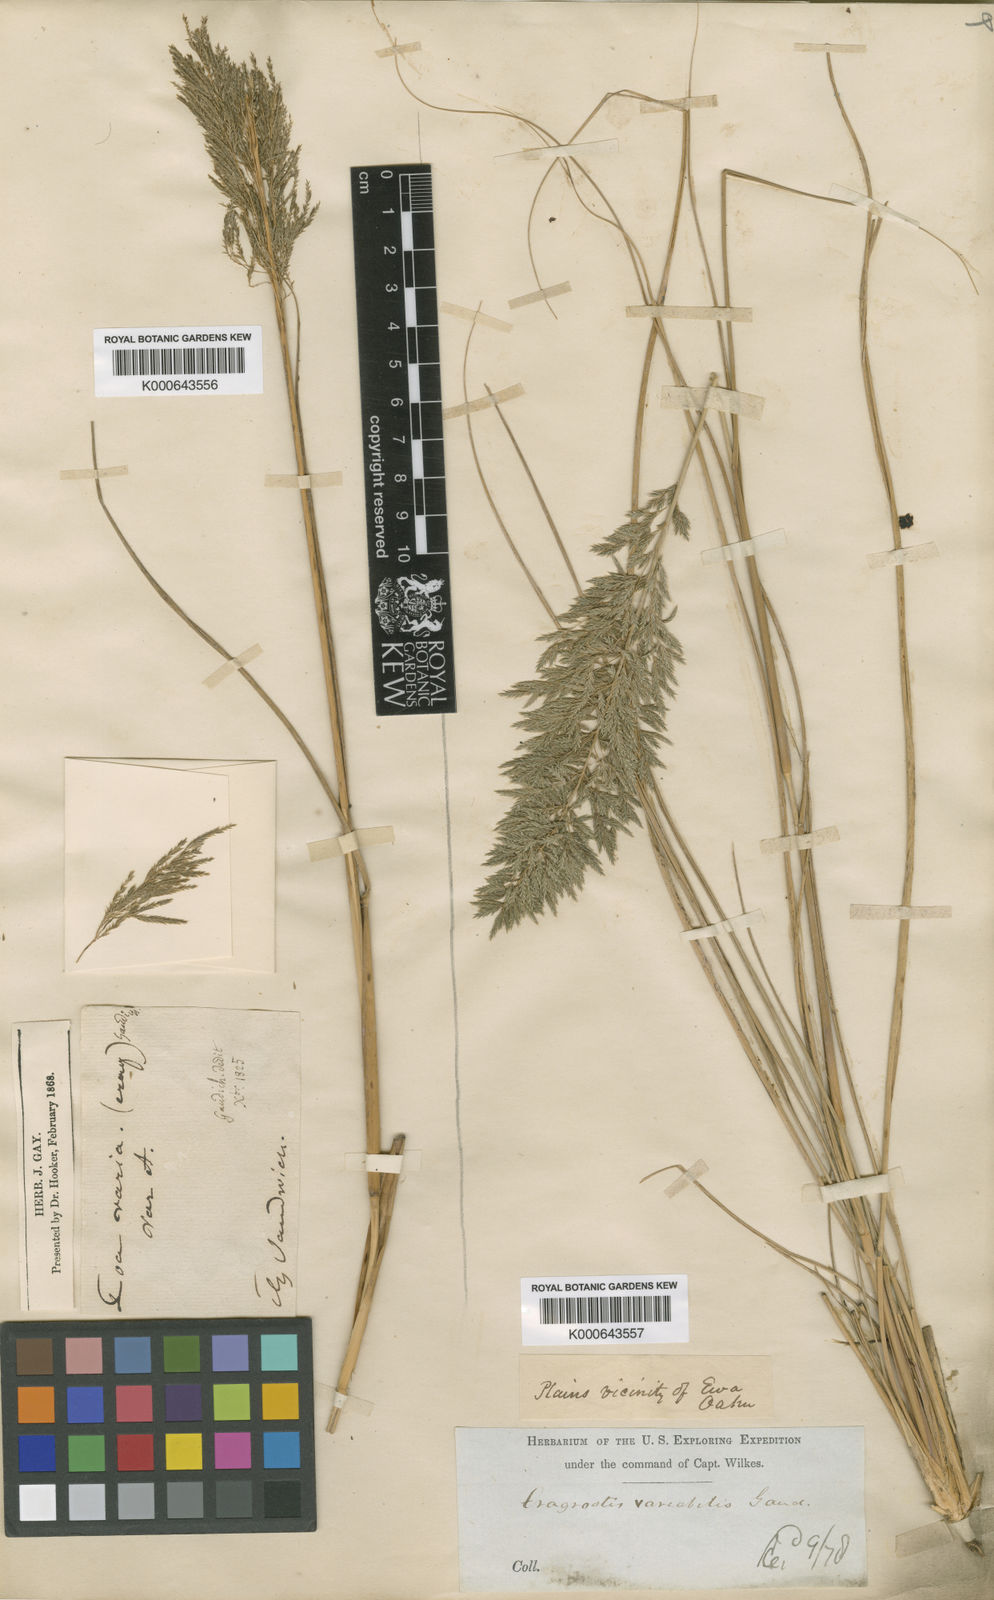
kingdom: Plantae
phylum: Tracheophyta
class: Liliopsida
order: Poales
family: Poaceae
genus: Eragrostis
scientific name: Eragrostis
